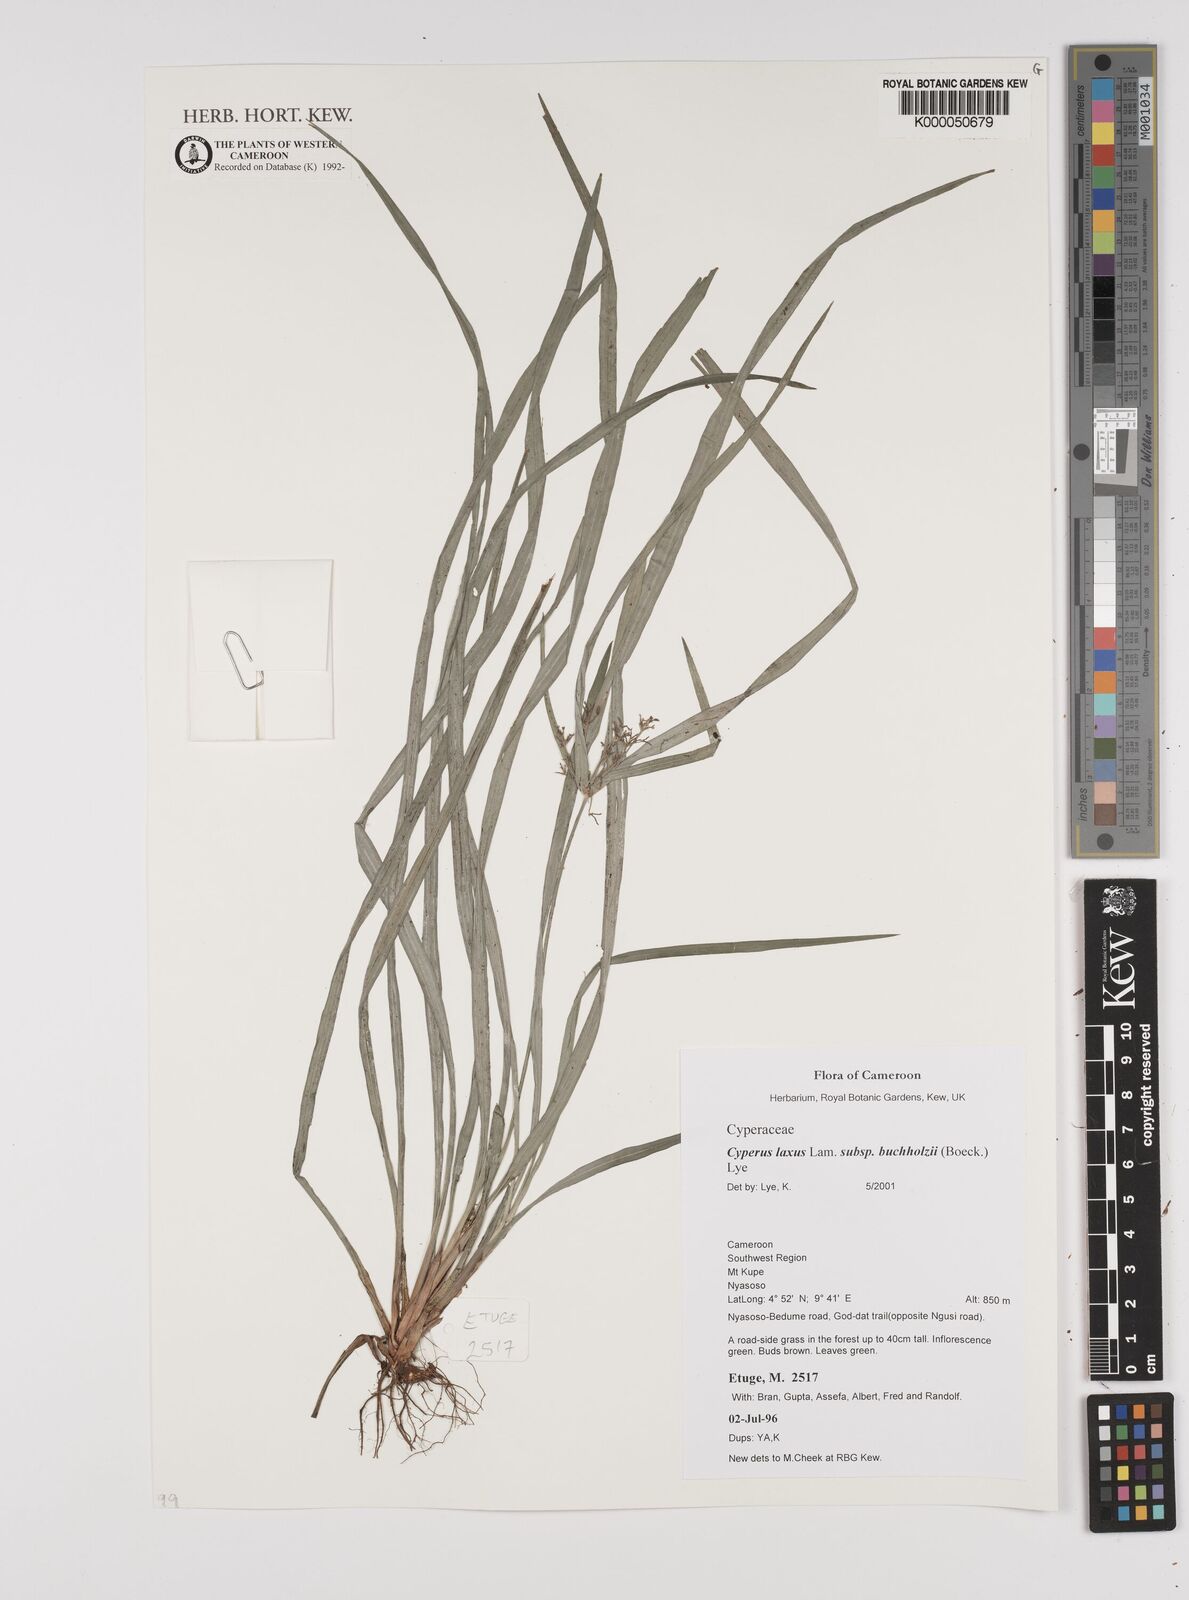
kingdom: Plantae
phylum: Tracheophyta
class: Liliopsida
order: Poales
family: Cyperaceae
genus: Cyperus
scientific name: Cyperus buchholzii
